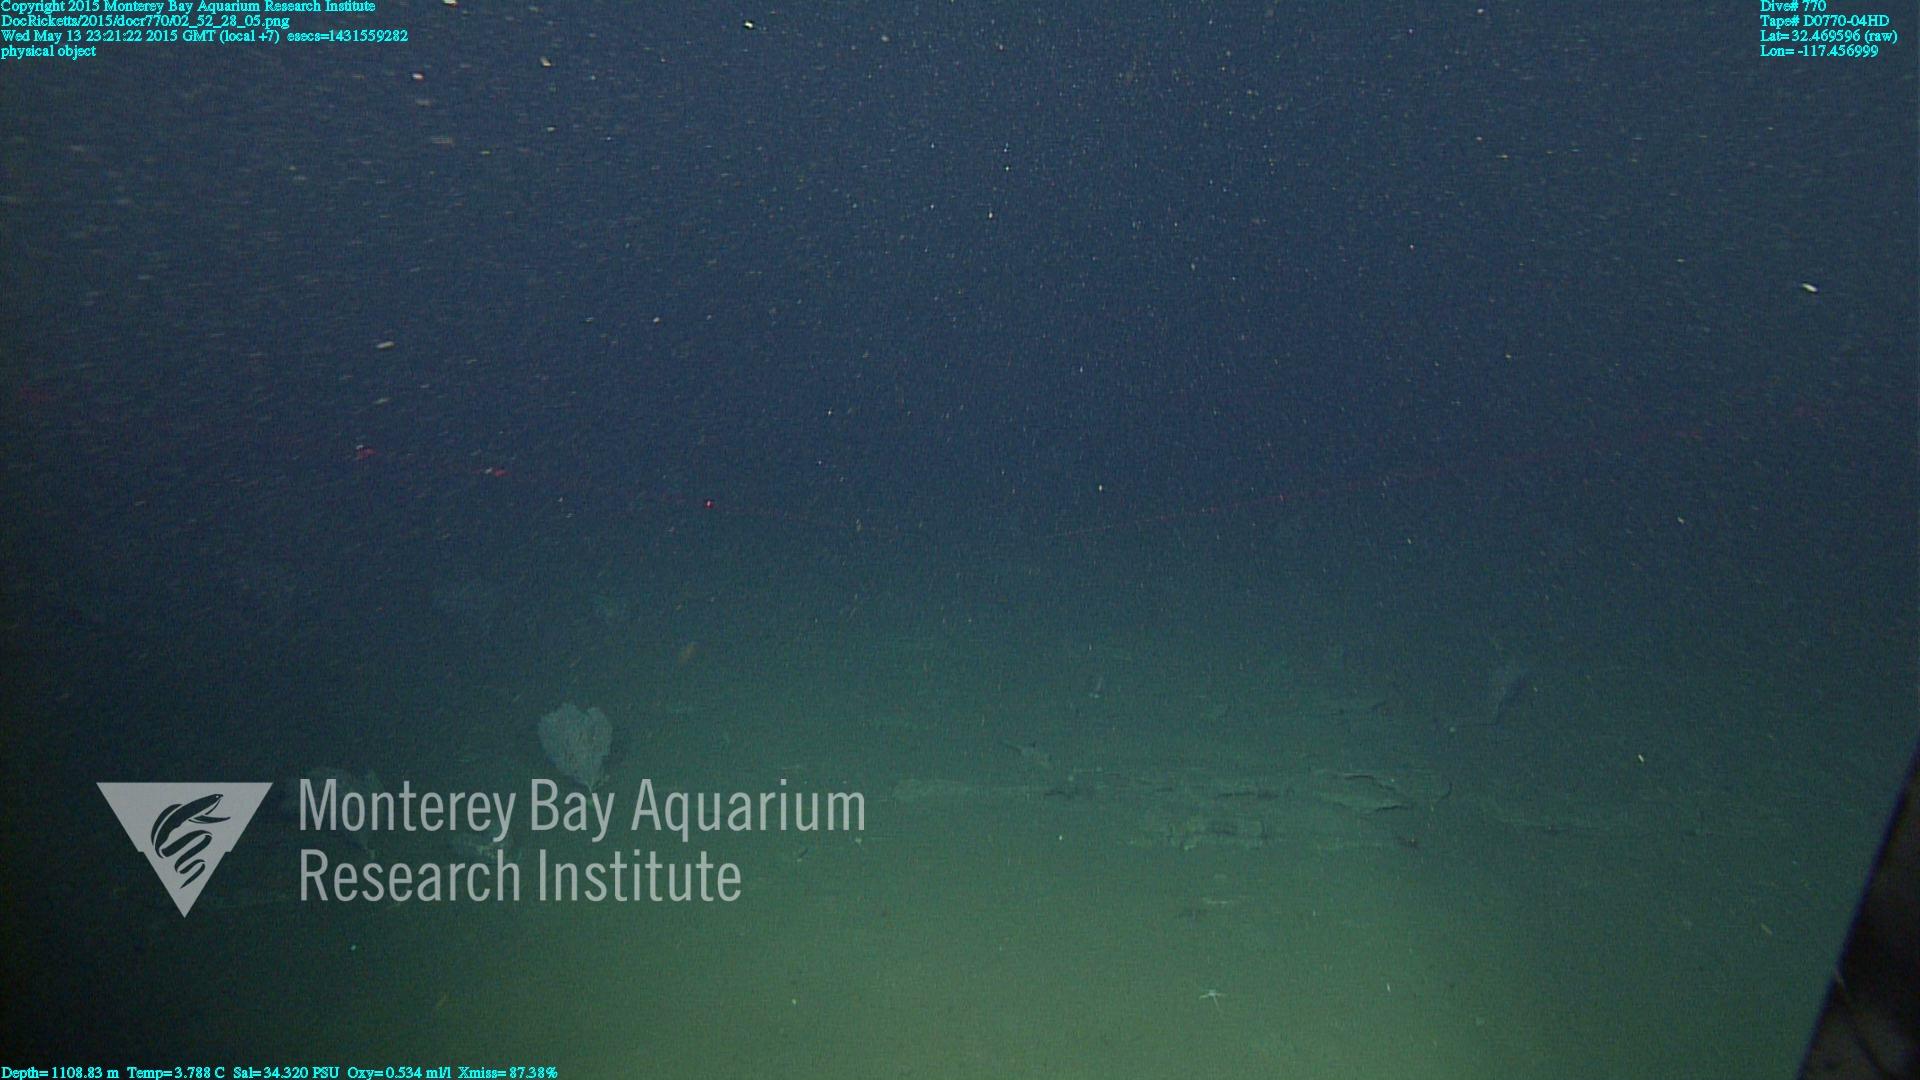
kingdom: Animalia
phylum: Cnidaria
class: Anthozoa
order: Scleralcyonacea
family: Primnoidae
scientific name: Primnoidae
